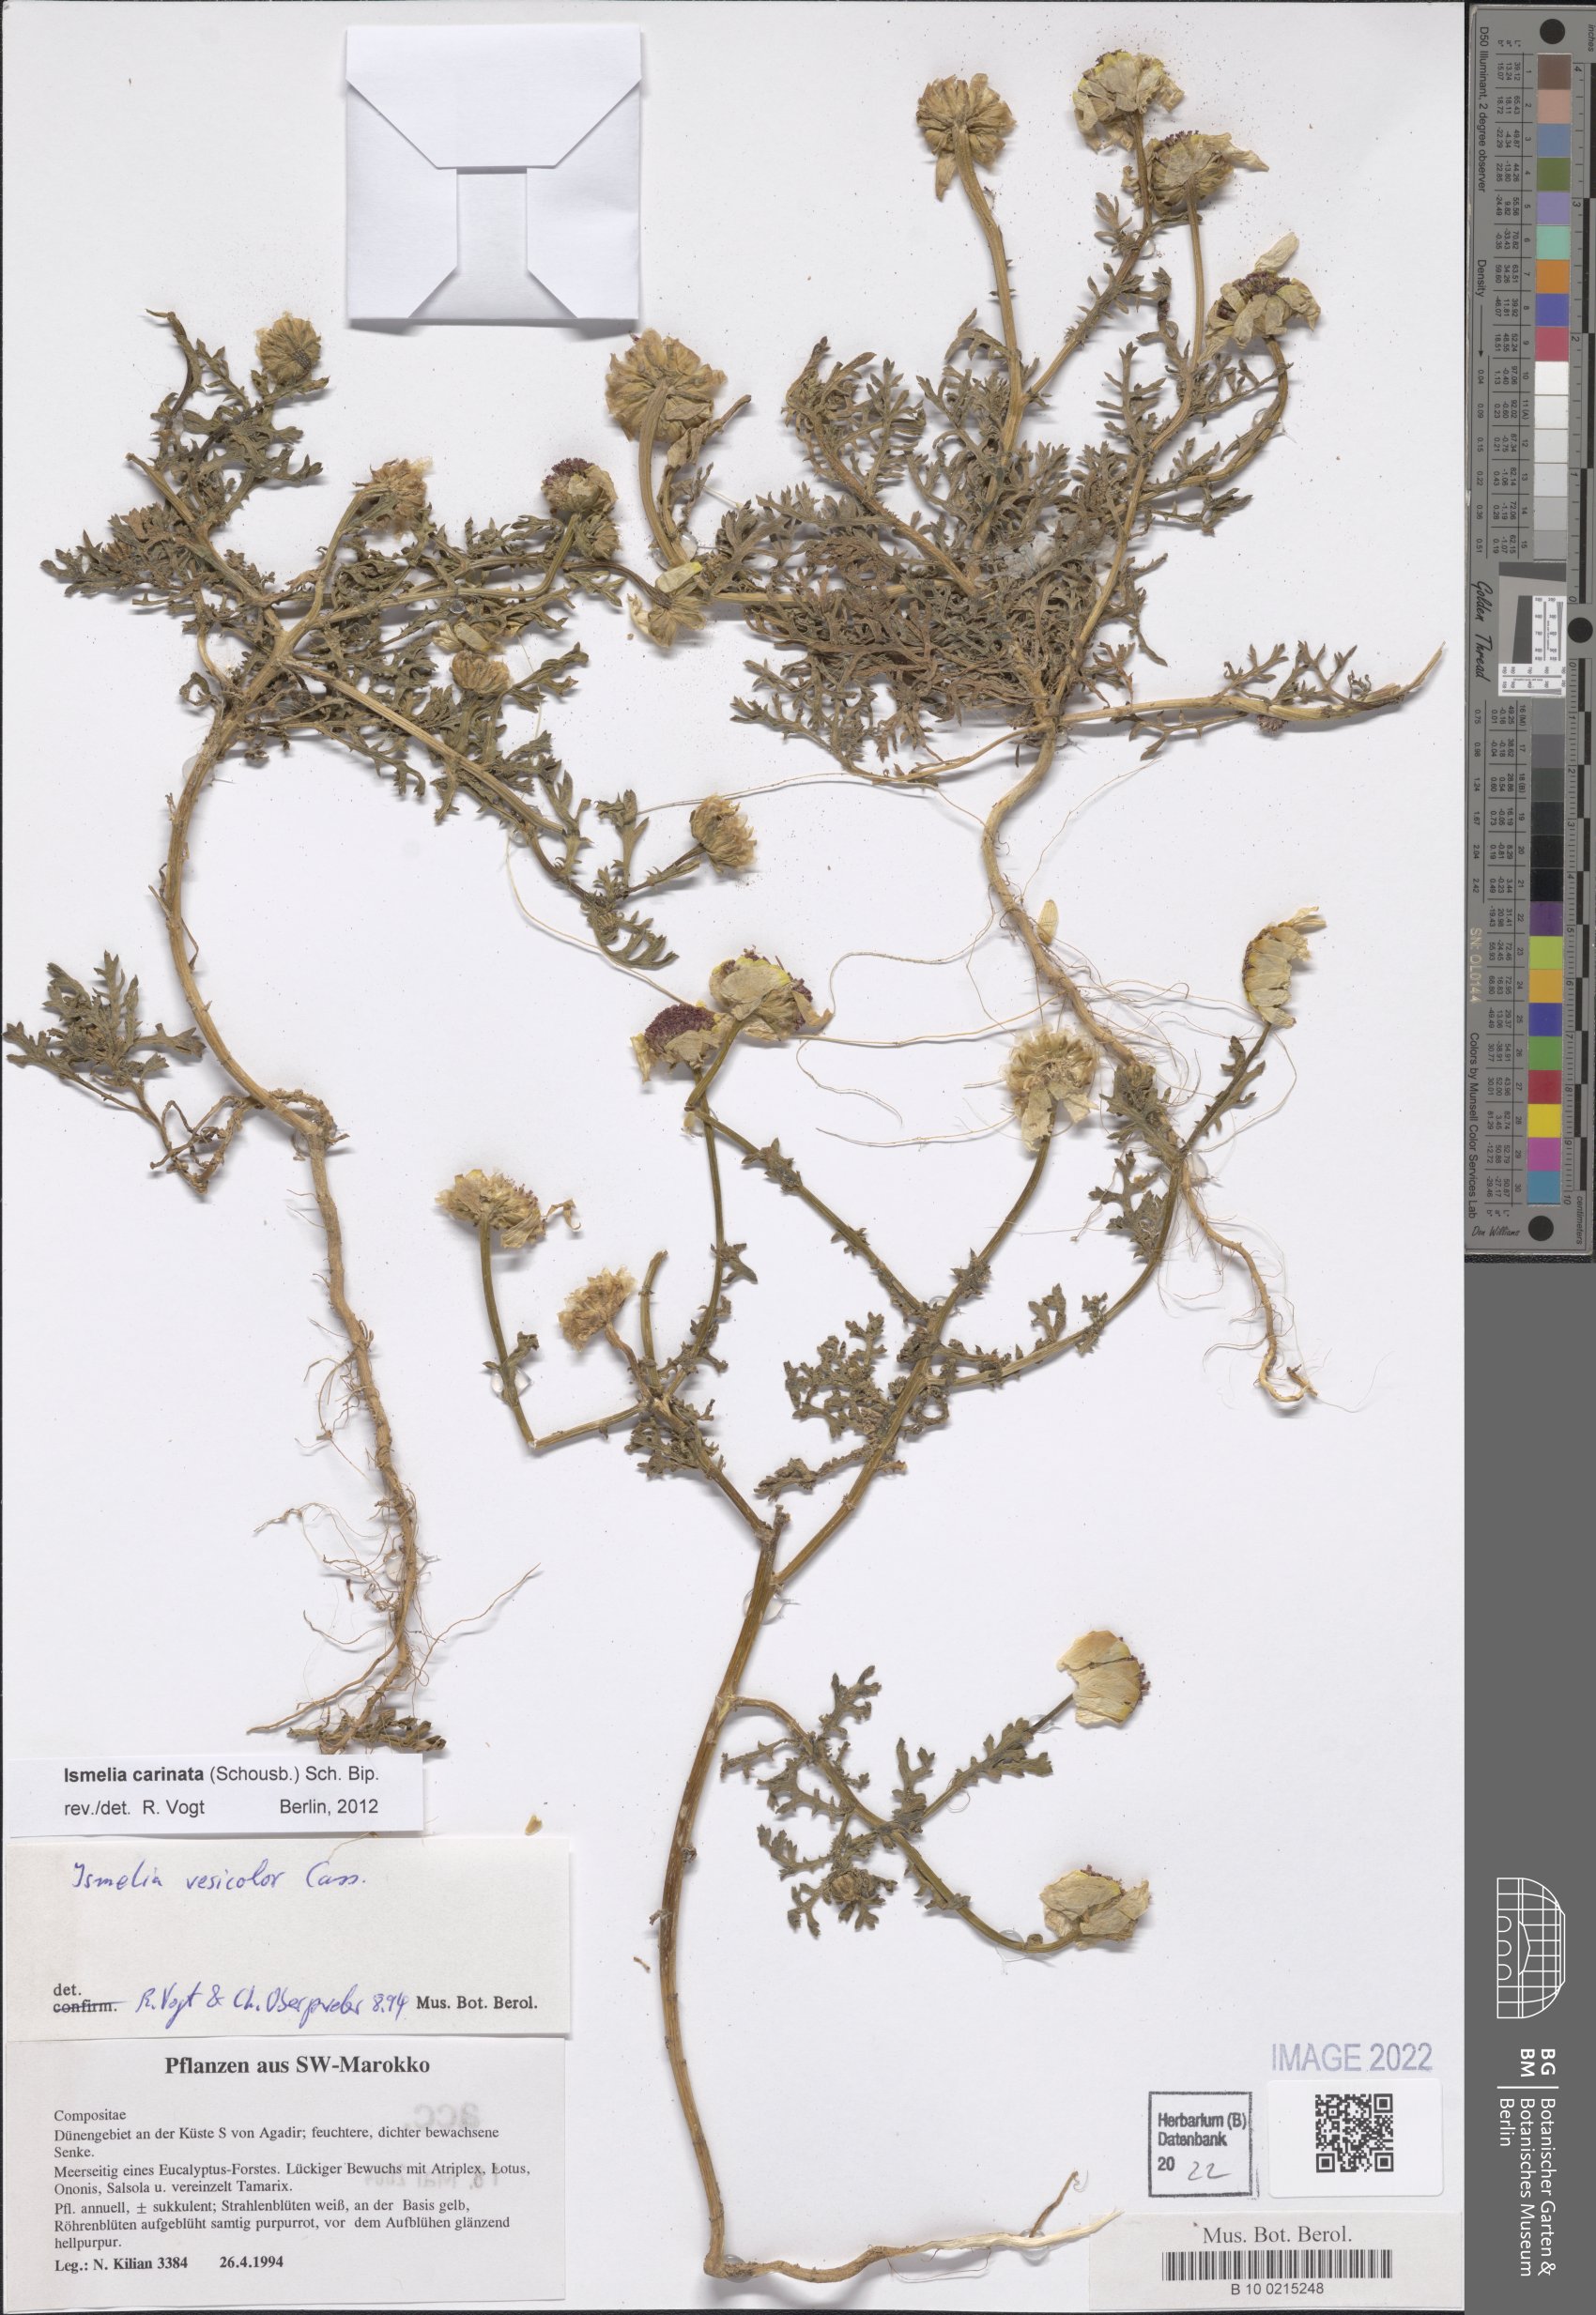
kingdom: Plantae
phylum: Tracheophyta
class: Magnoliopsida
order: Asterales
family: Asteraceae
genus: Glebionis
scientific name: Glebionis carinata
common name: Painted daisy
